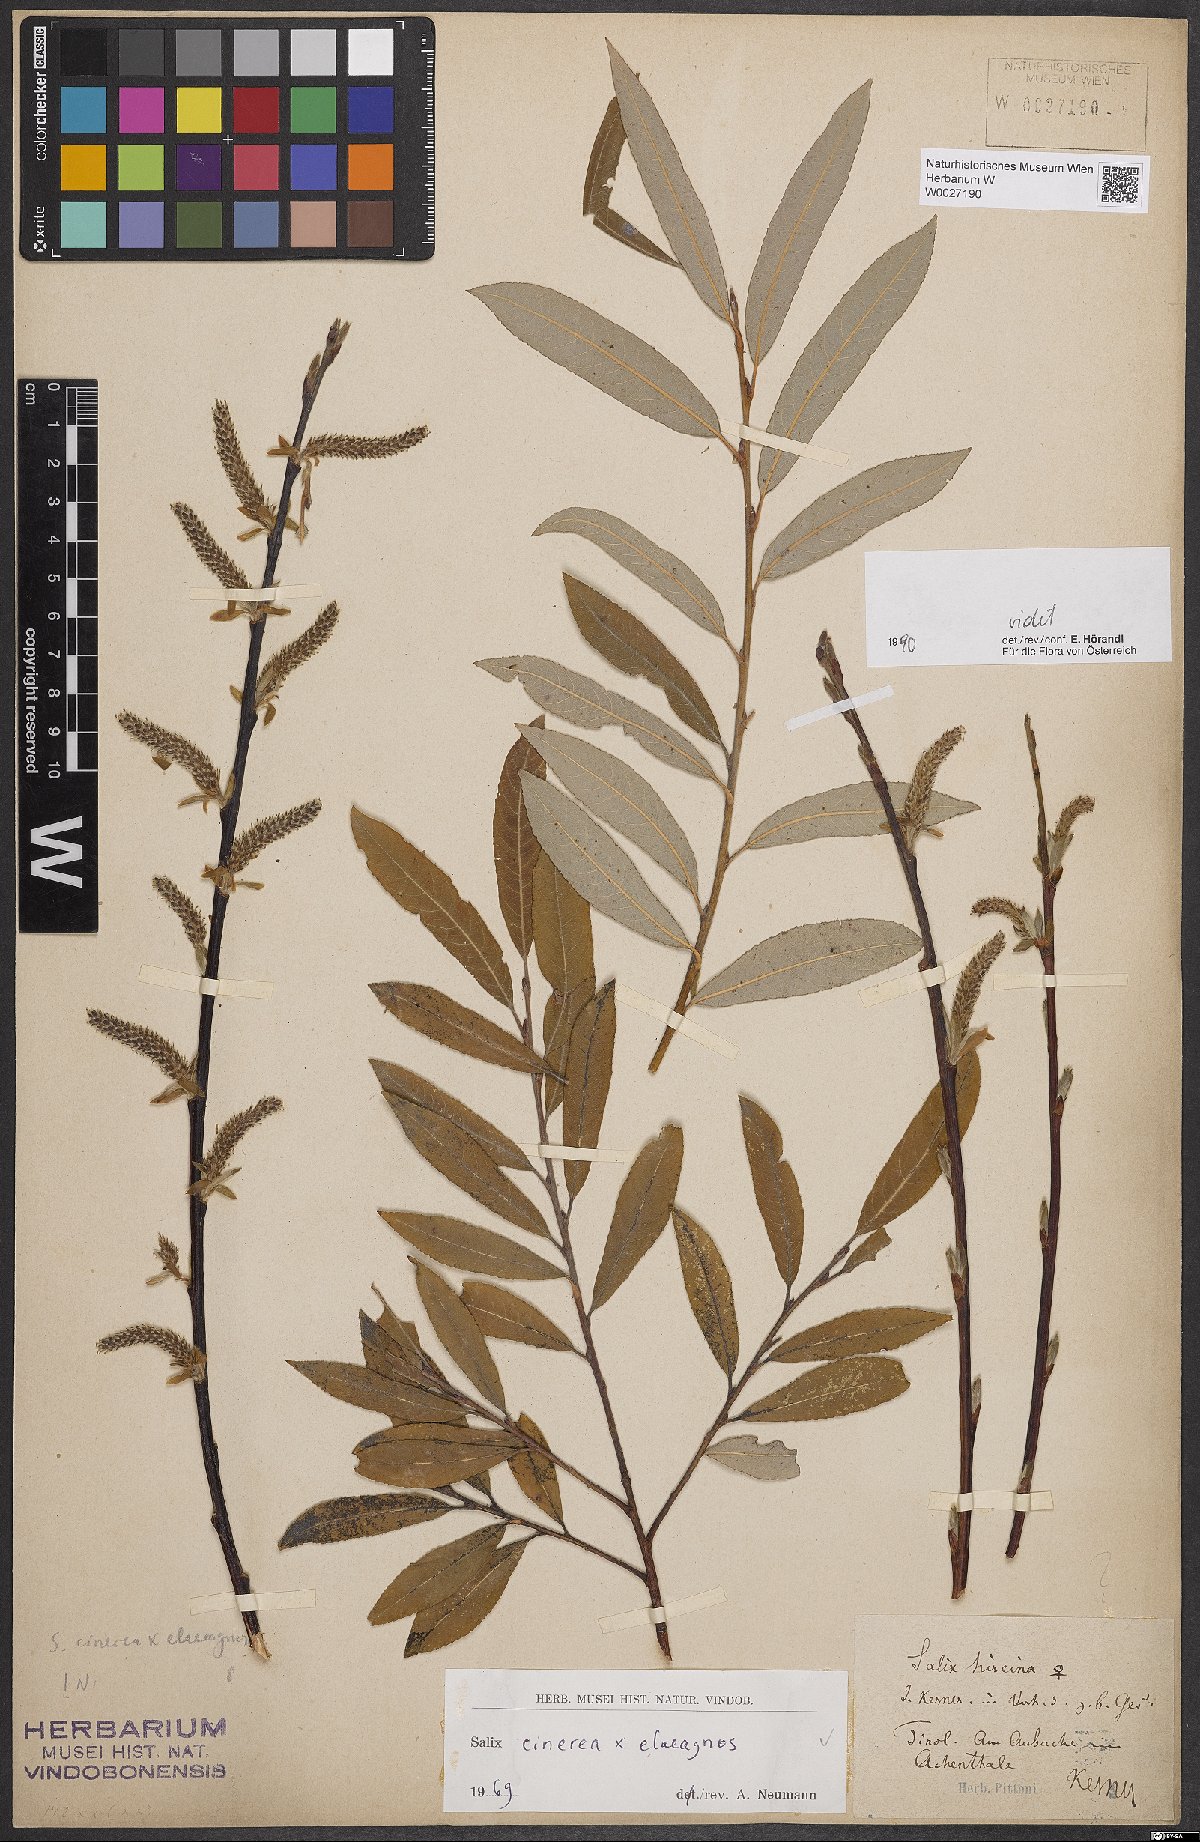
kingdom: Plantae
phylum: Tracheophyta
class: Magnoliopsida
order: Malpighiales
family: Salicaceae
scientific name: Salicaceae
